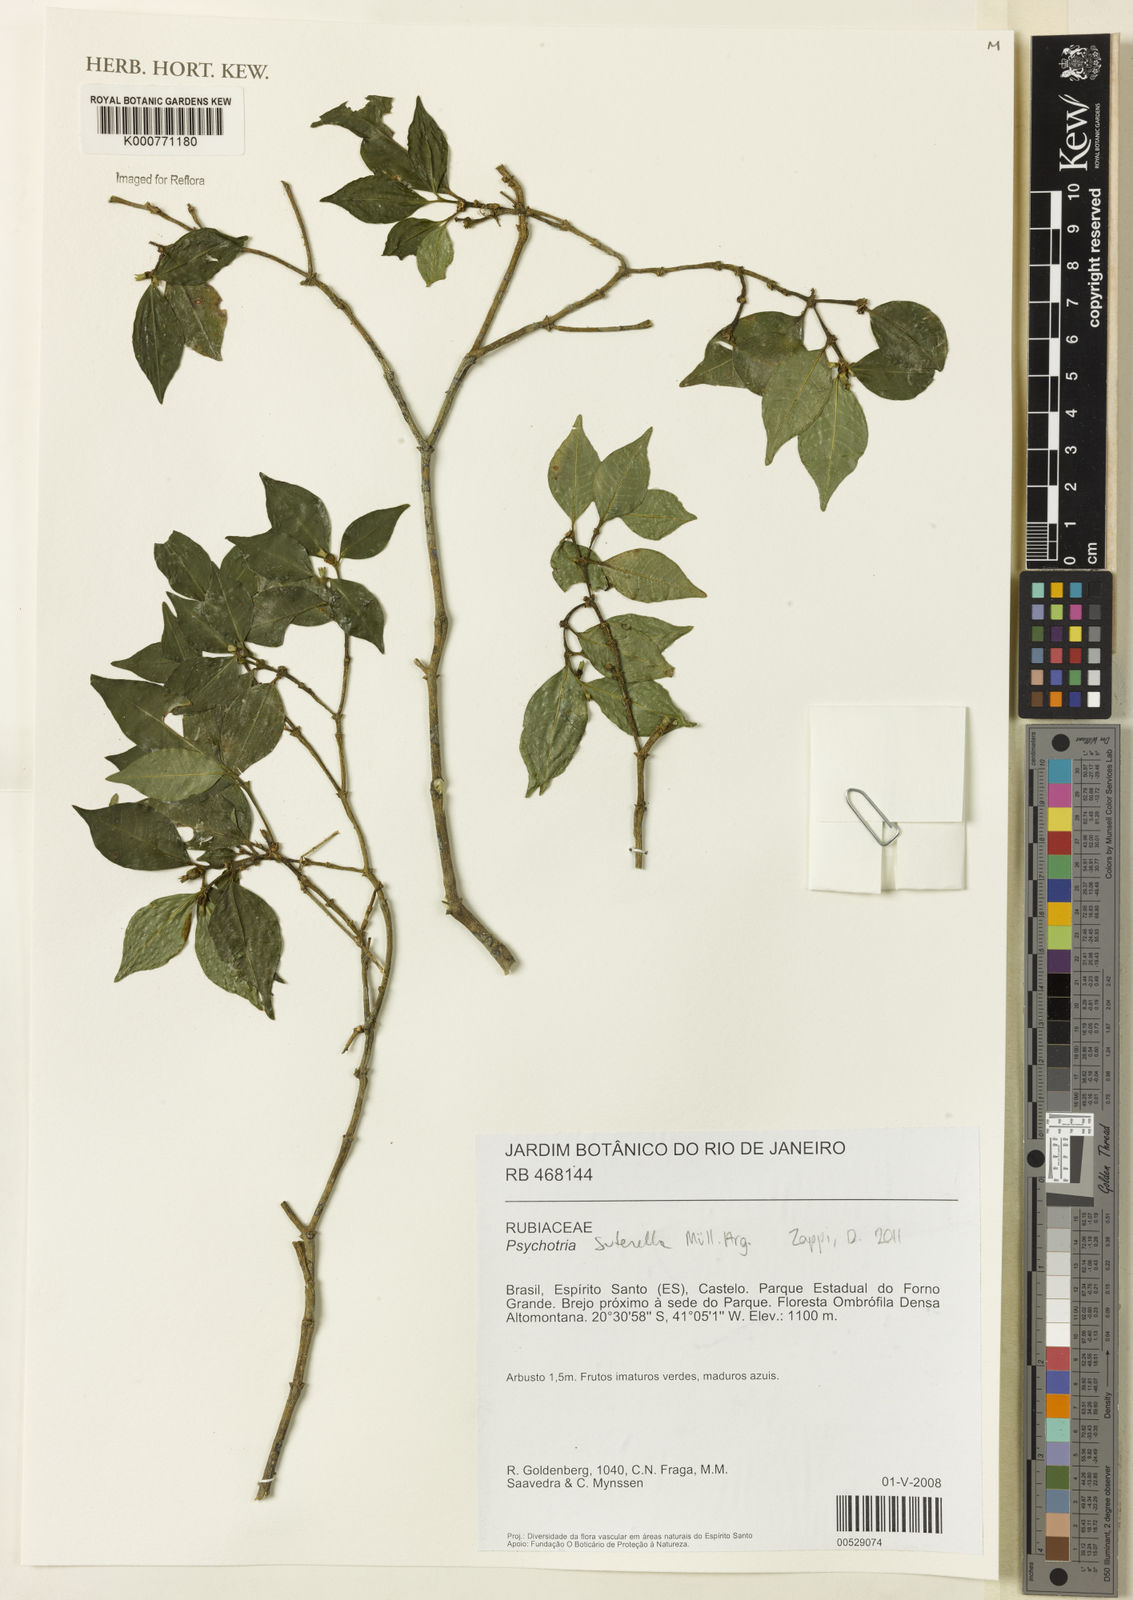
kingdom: Plantae
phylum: Tracheophyta
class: Magnoliopsida
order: Gentianales
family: Rubiaceae
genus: Psychotria
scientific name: Psychotria
